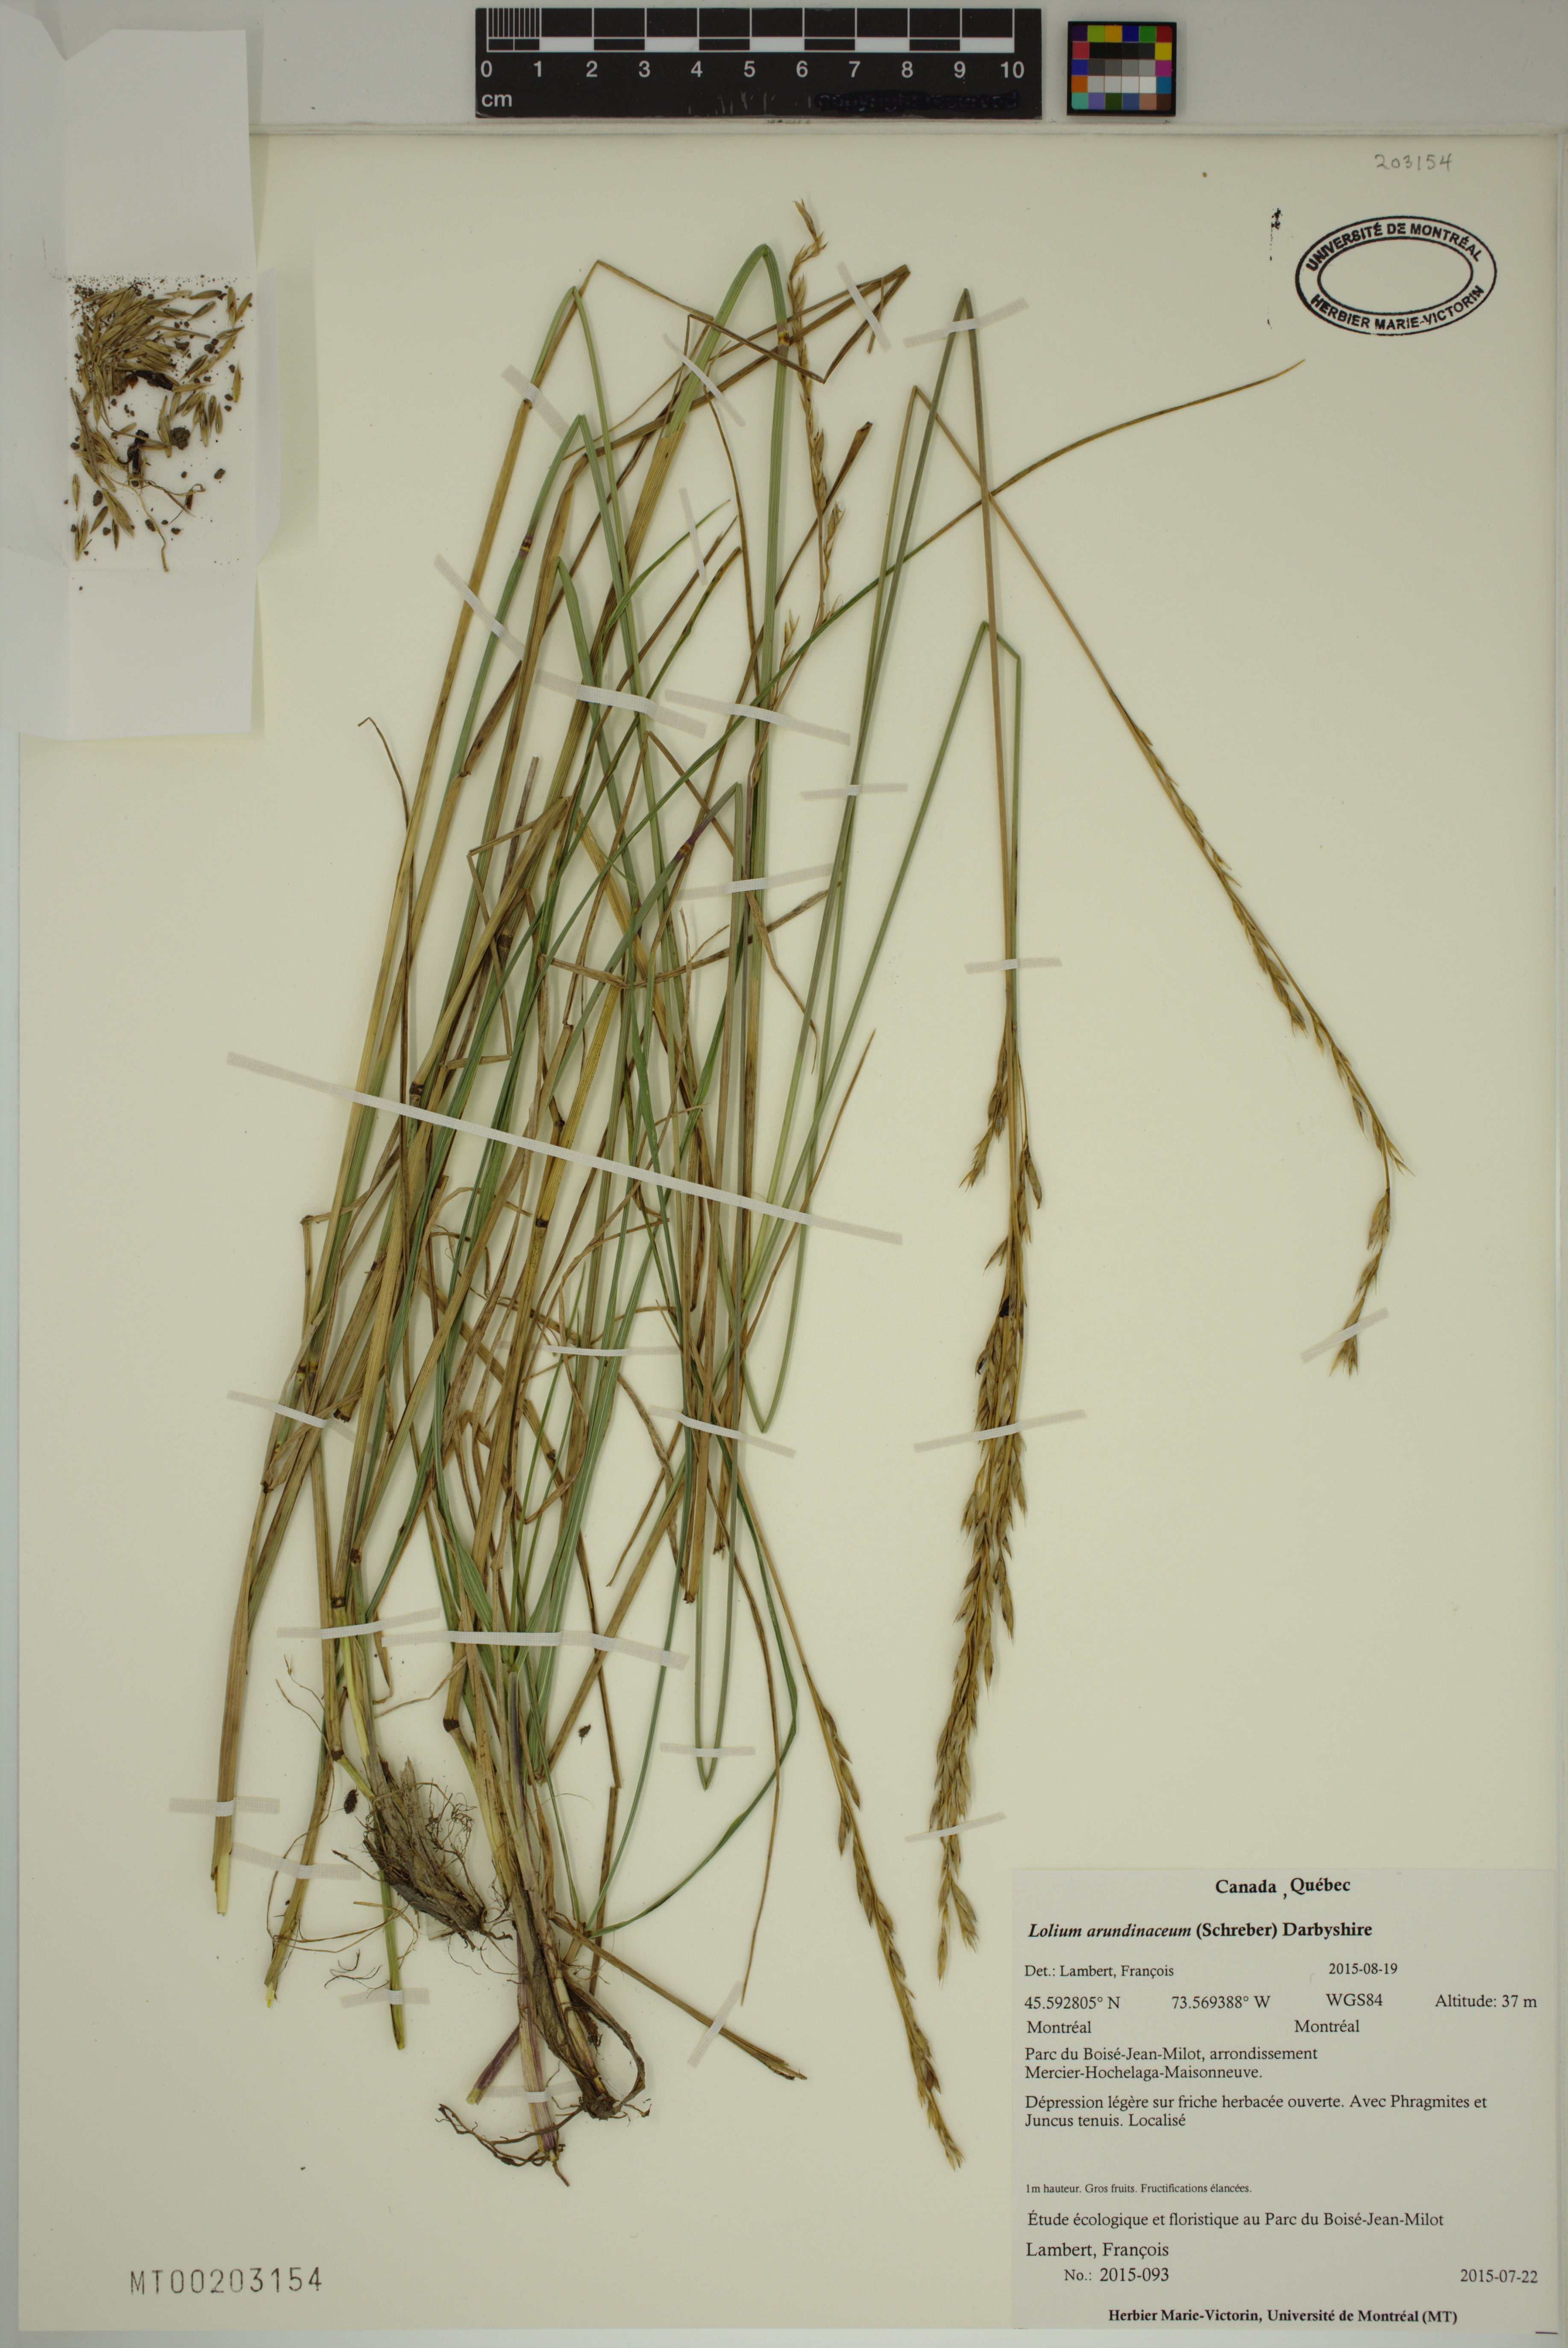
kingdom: Plantae
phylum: Tracheophyta
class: Liliopsida
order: Poales
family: Poaceae
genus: Lolium
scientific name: Lolium arundinaceum
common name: Reed fescue
